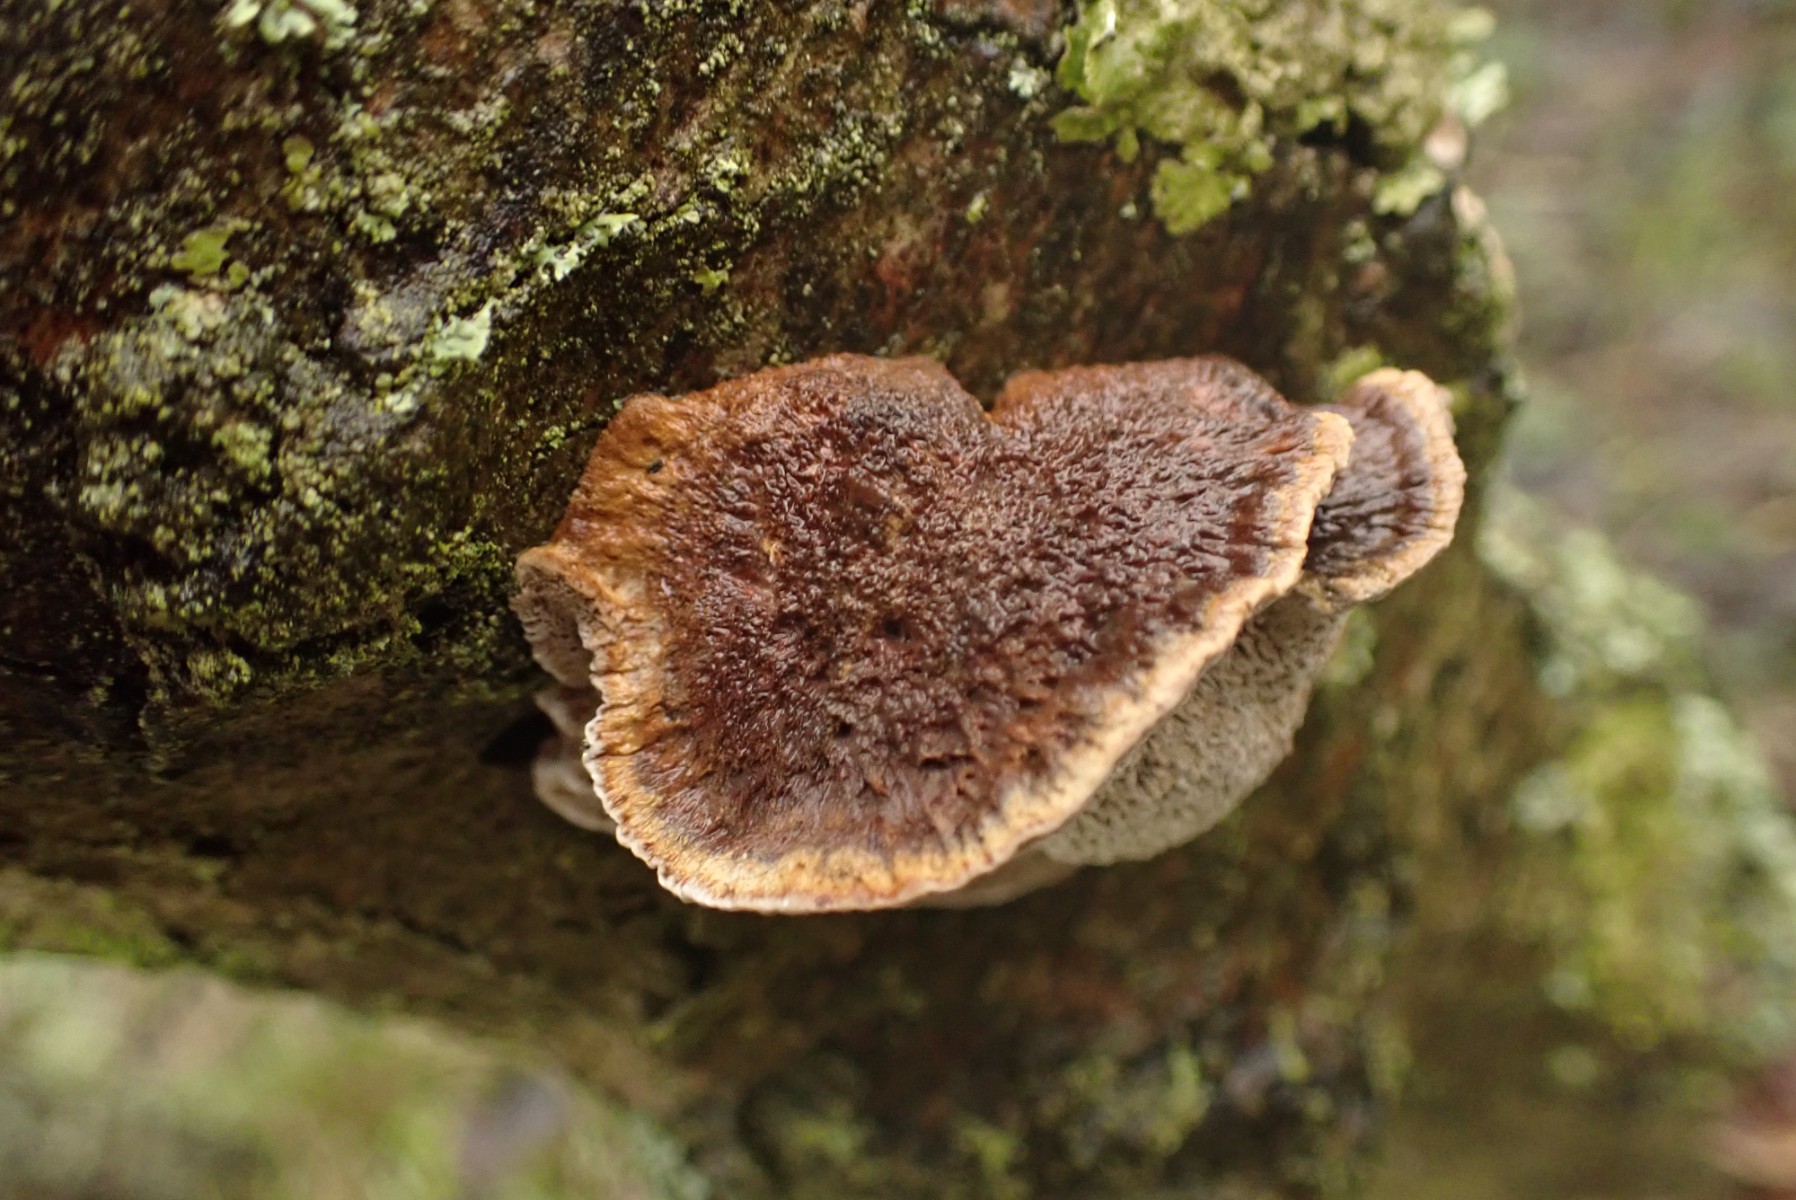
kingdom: Fungi
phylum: Basidiomycota
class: Agaricomycetes
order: Hymenochaetales
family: Hymenochaetaceae
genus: Xanthoporia
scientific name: Xanthoporia radiata
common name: elle-spejlporesvamp
